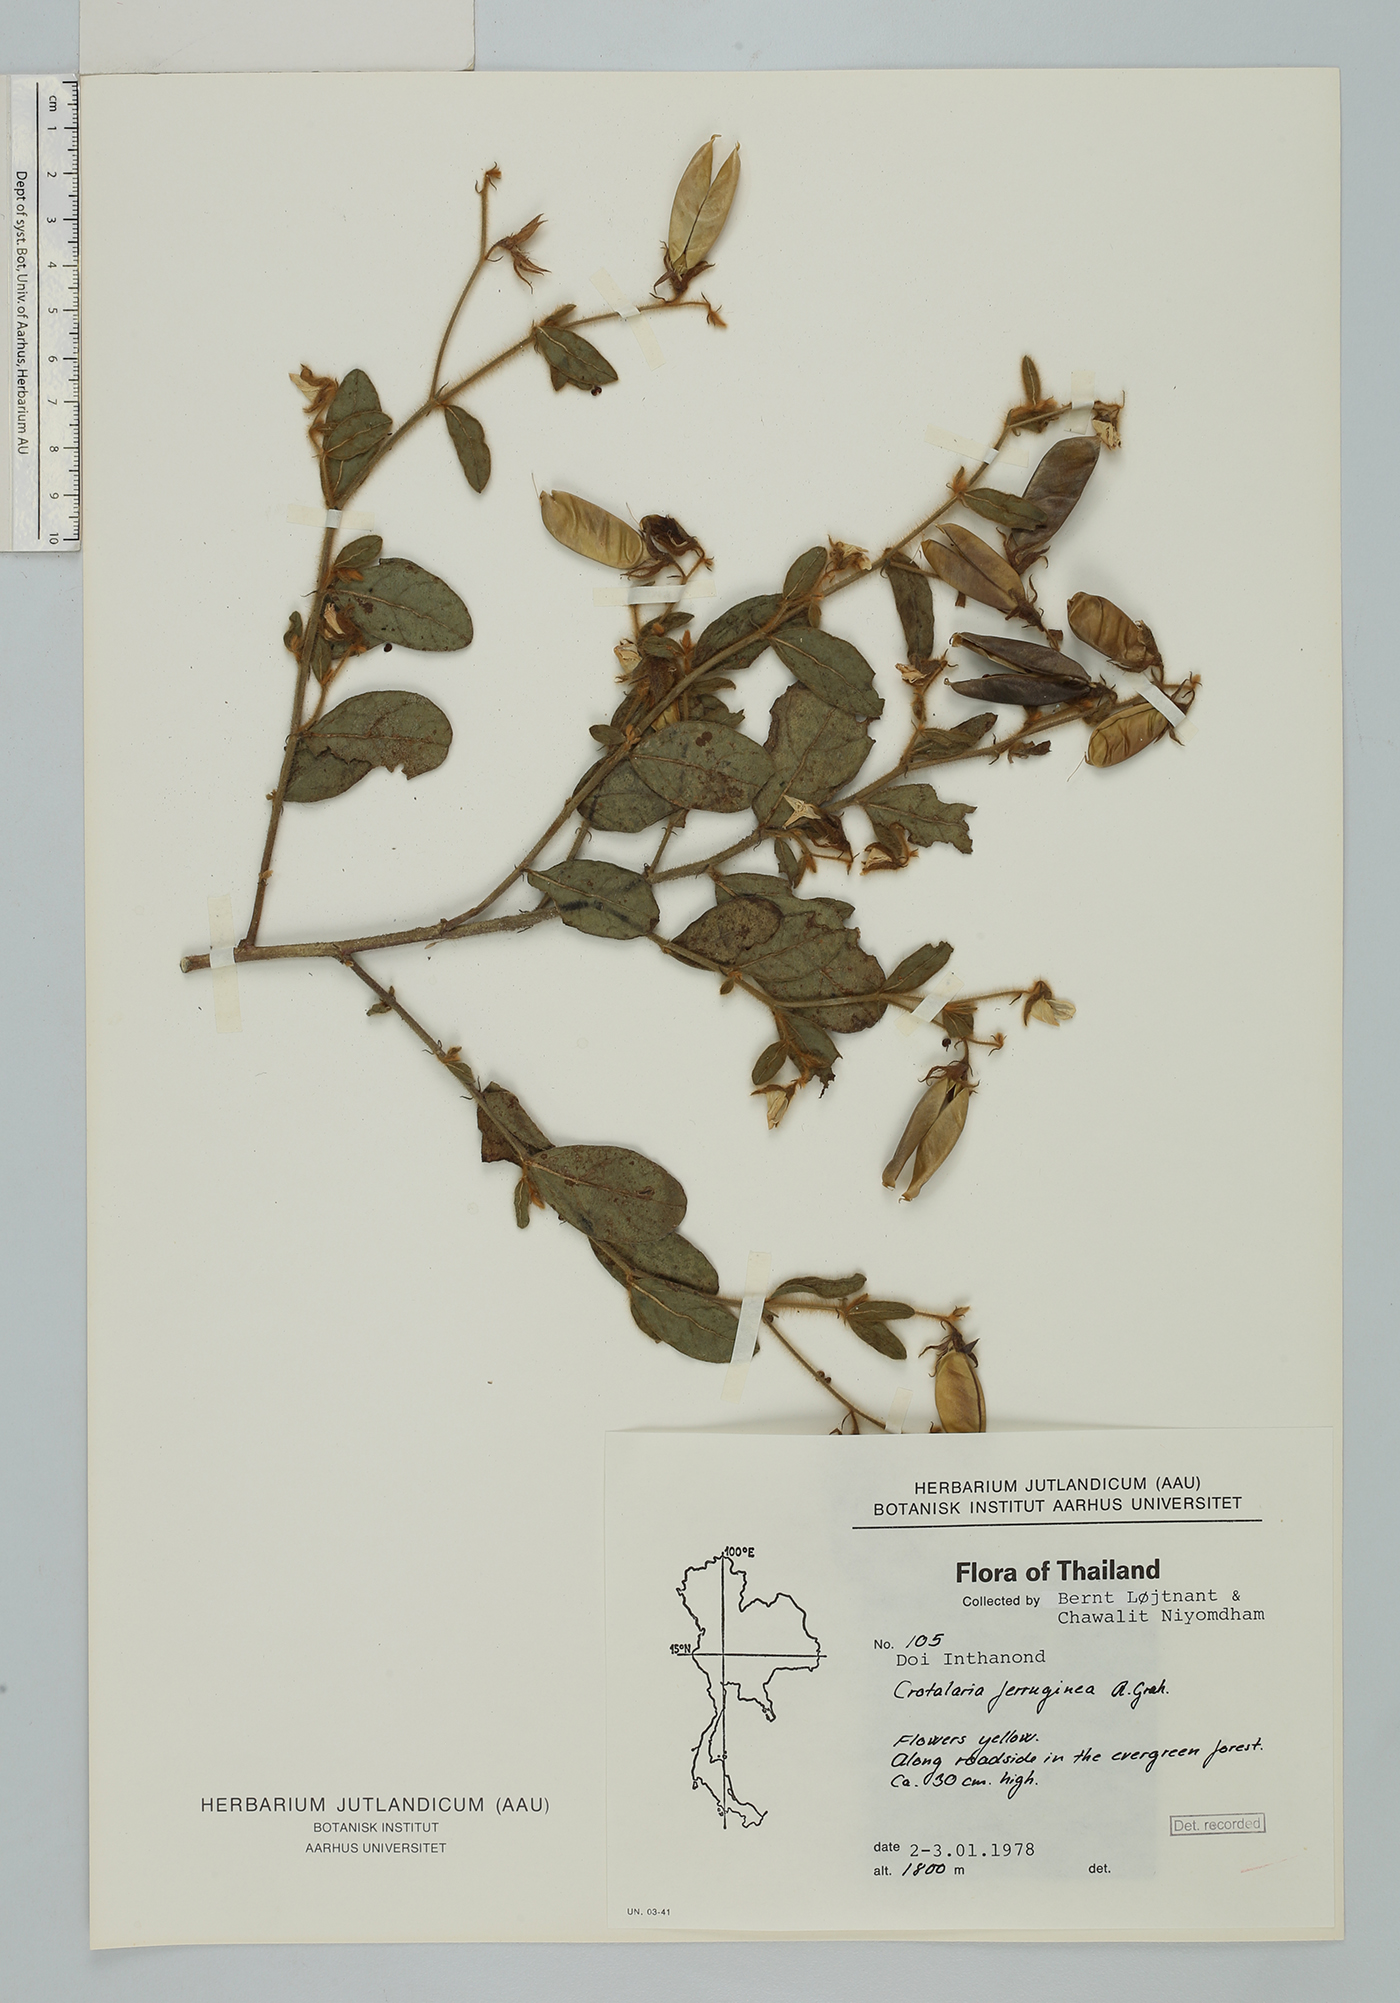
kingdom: Plantae
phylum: Tracheophyta
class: Magnoliopsida
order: Fabales
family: Fabaceae
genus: Crotalaria
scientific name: Crotalaria lejoloba
